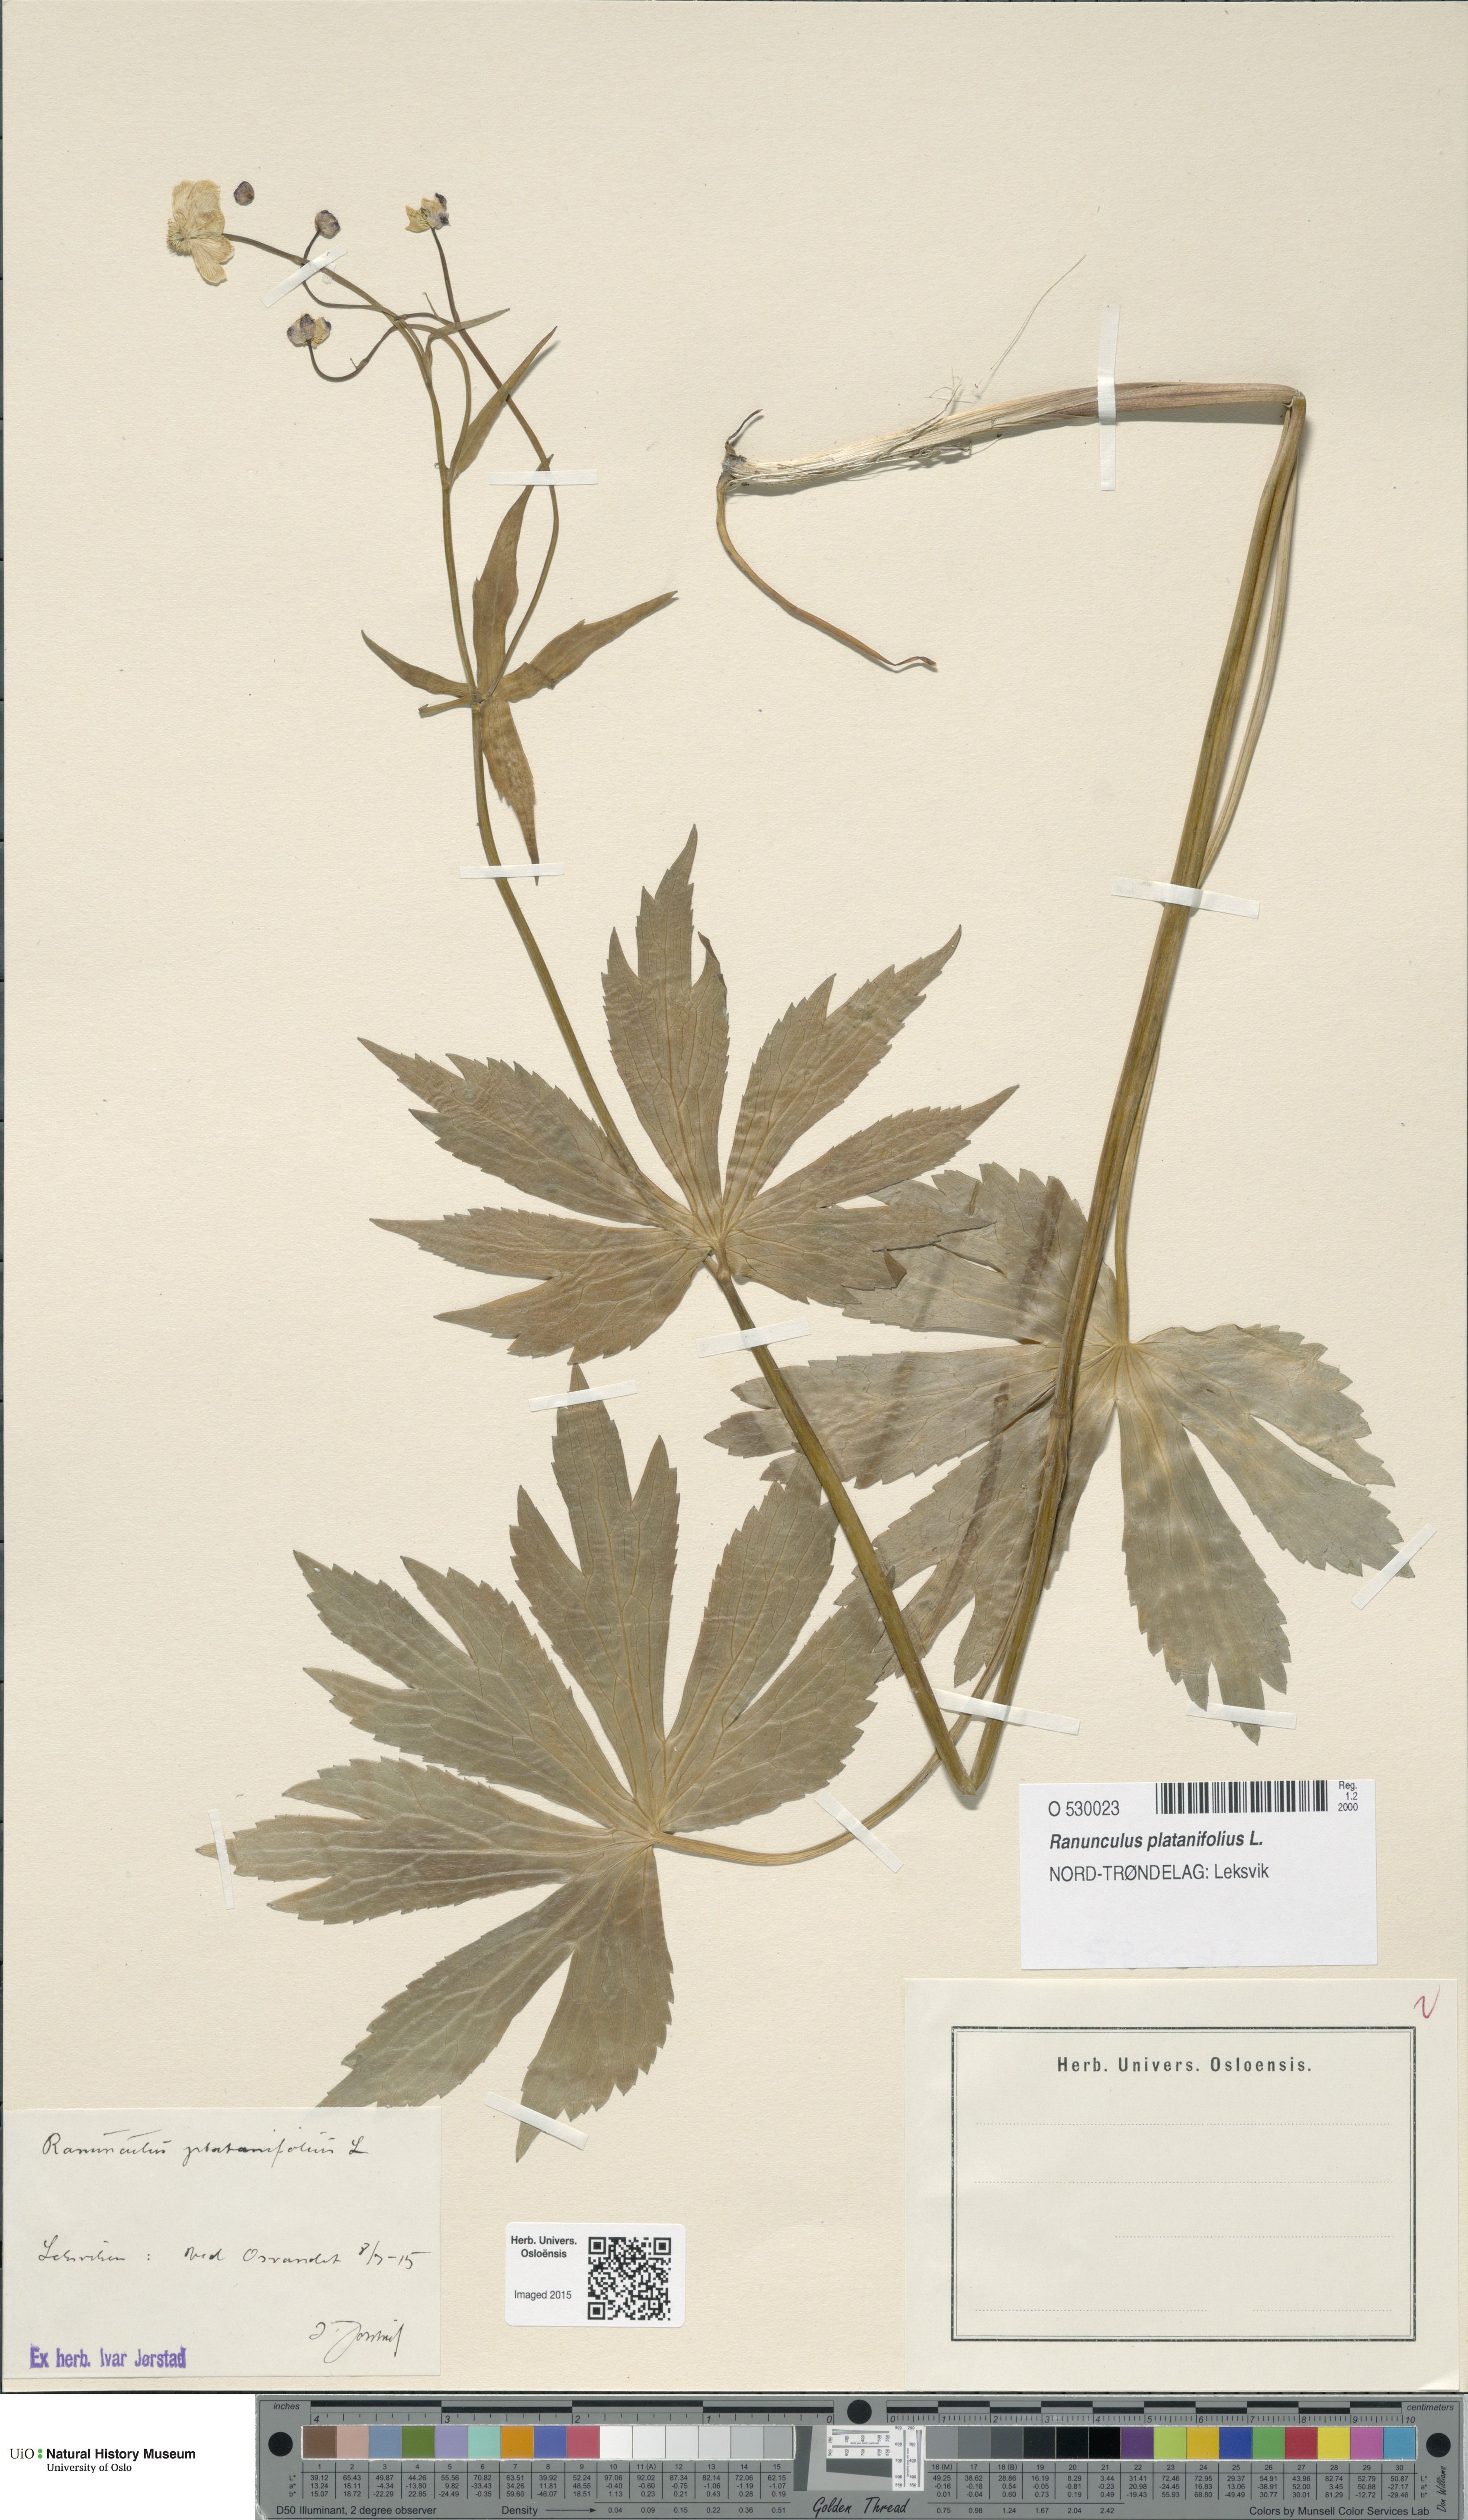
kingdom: Plantae
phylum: Tracheophyta
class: Magnoliopsida
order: Ranunculales
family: Ranunculaceae
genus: Ranunculus
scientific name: Ranunculus platanifolius
